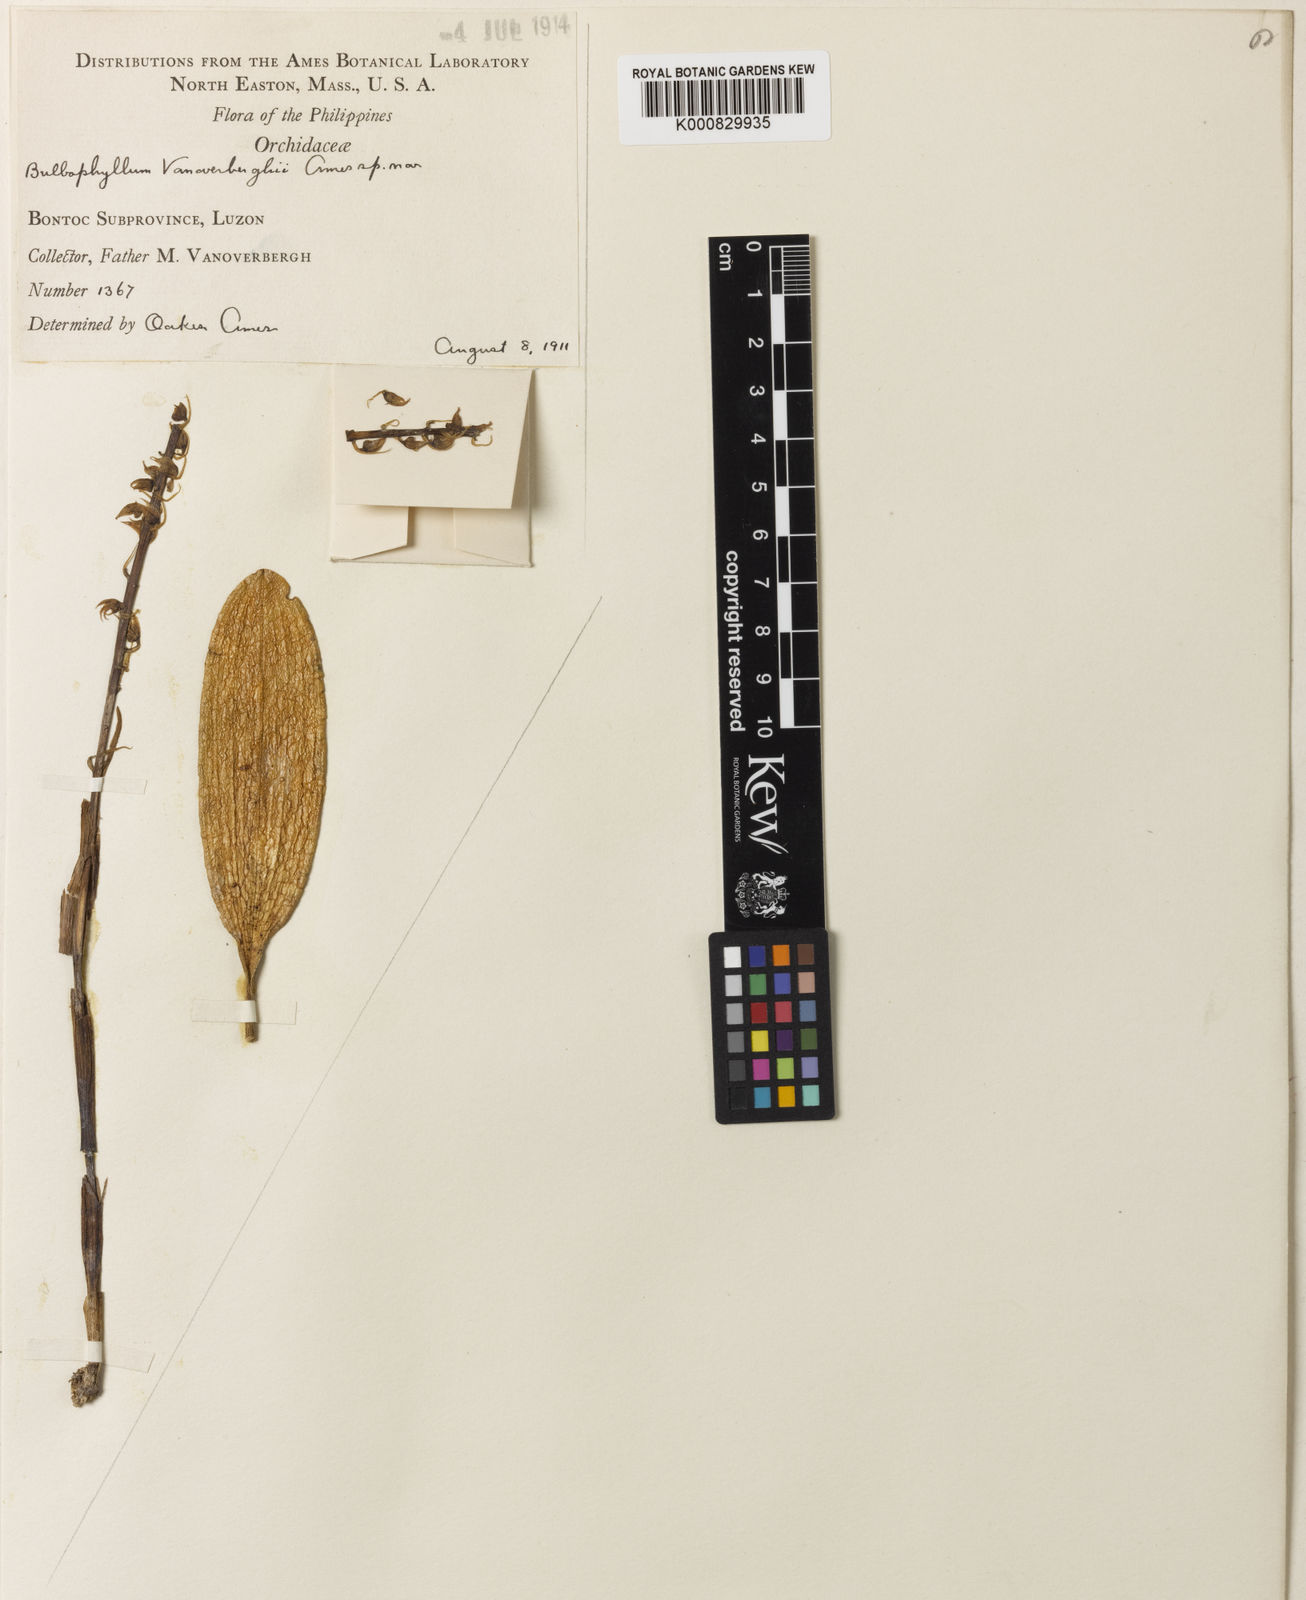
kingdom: Plantae
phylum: Tracheophyta
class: Liliopsida
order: Asparagales
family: Orchidaceae
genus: Bulbophyllum
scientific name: Bulbophyllum dasypetalum
